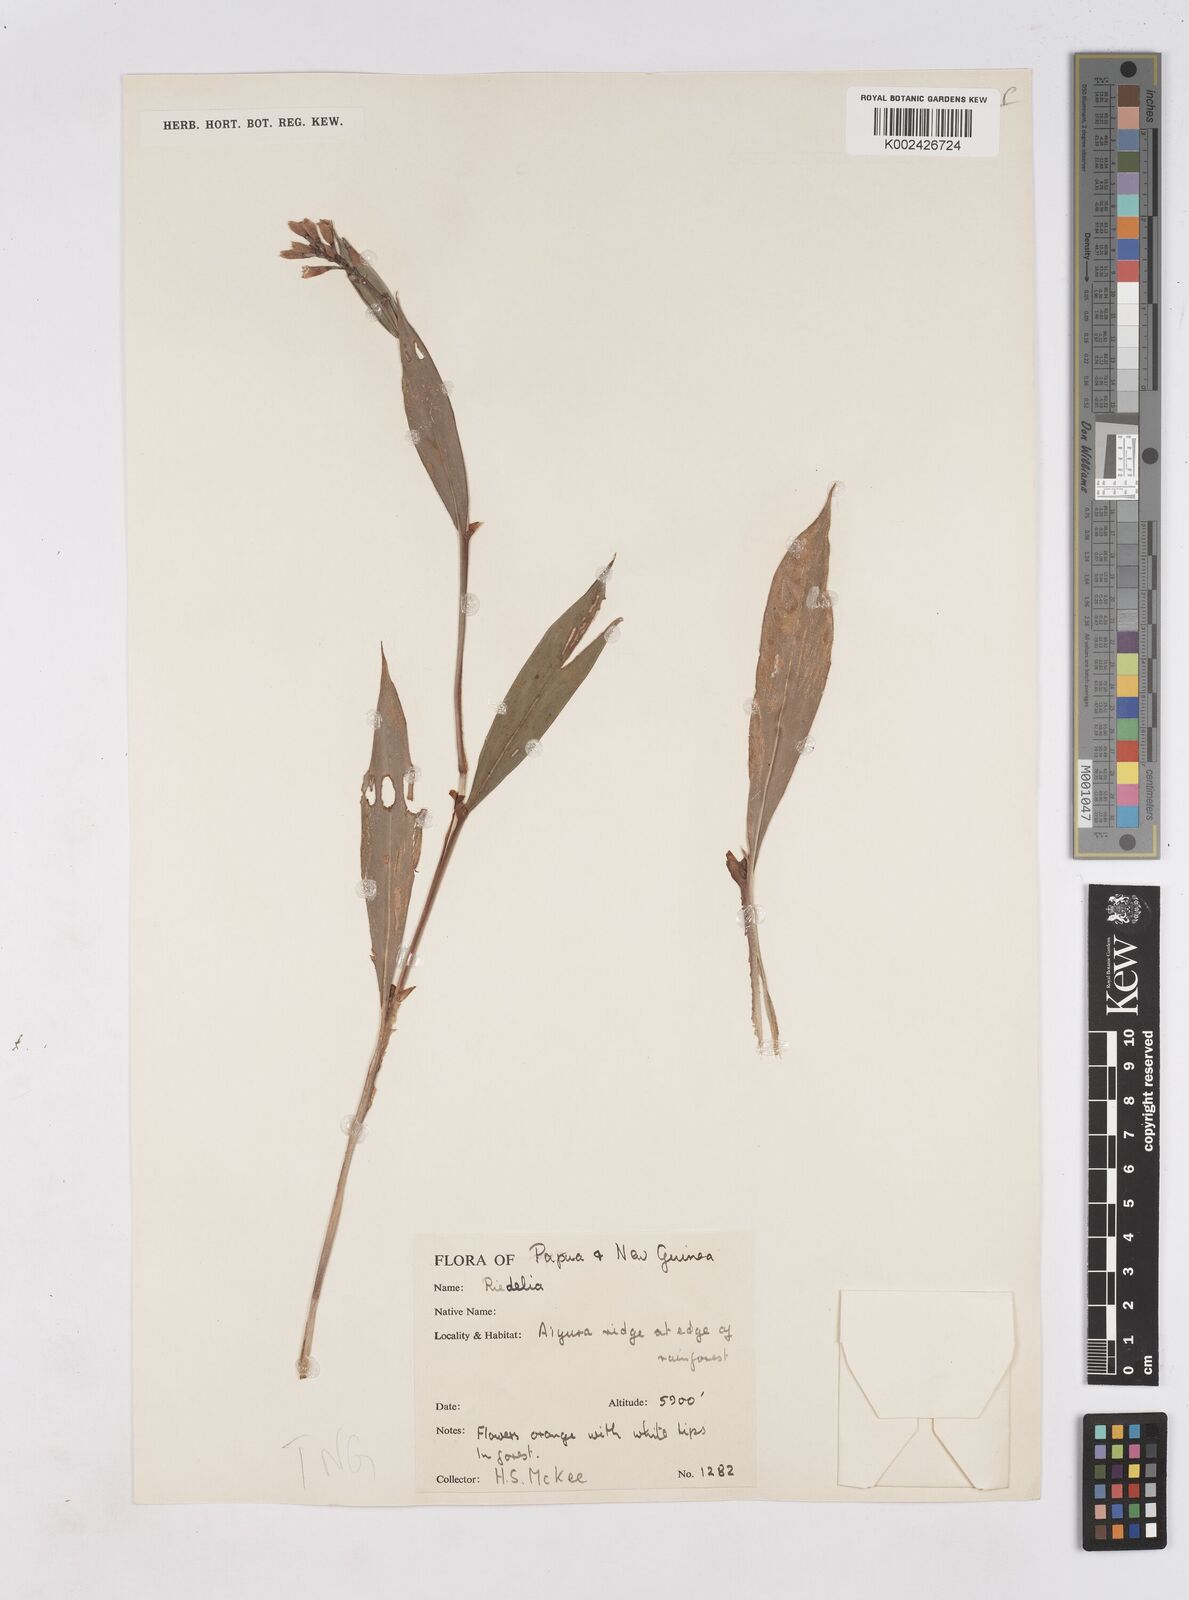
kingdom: Plantae
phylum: Tracheophyta
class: Liliopsida
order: Zingiberales
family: Zingiberaceae
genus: Riedelia
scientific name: Riedelia
